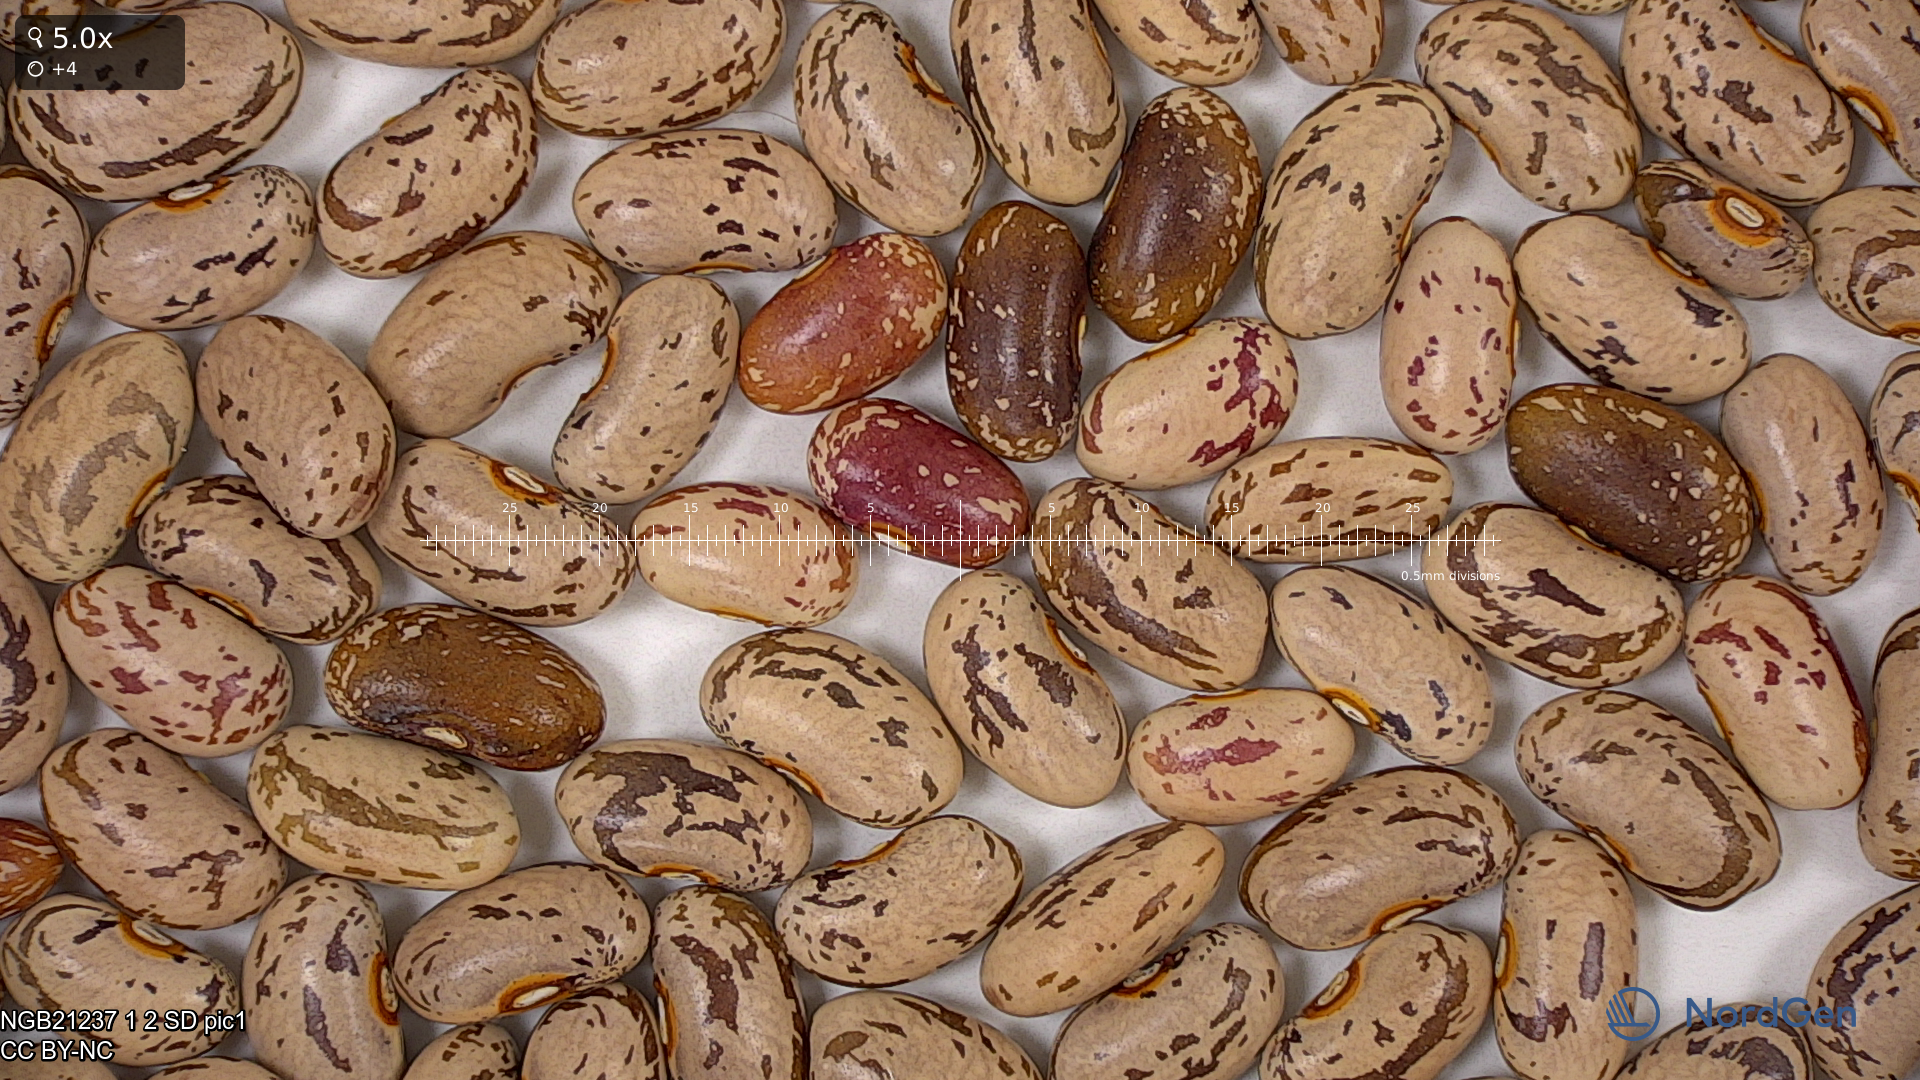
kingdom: Plantae
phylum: Tracheophyta
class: Magnoliopsida
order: Fabales
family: Fabaceae
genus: Phaseolus
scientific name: Phaseolus vulgaris
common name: Bean
